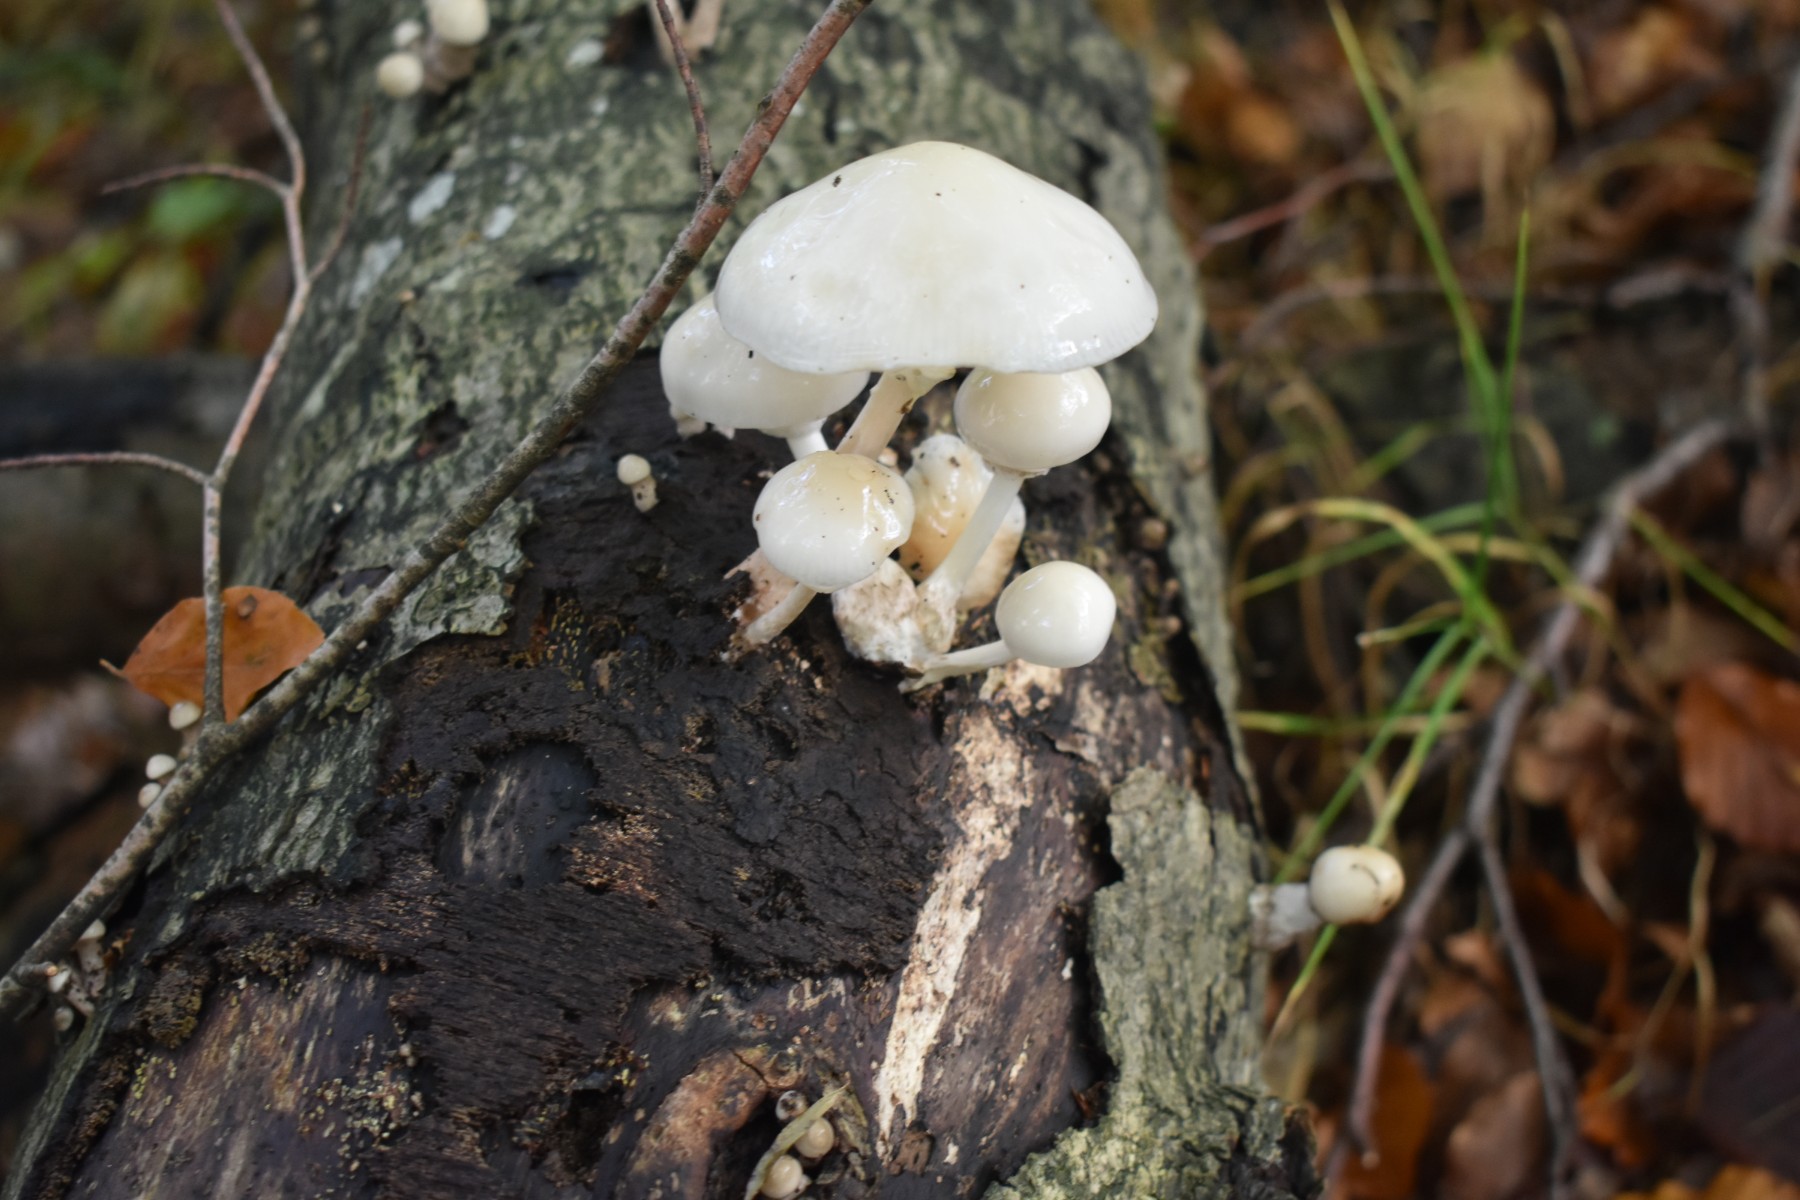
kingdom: Fungi
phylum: Basidiomycota
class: Agaricomycetes
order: Agaricales
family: Physalacriaceae
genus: Mucidula
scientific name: Mucidula mucida
